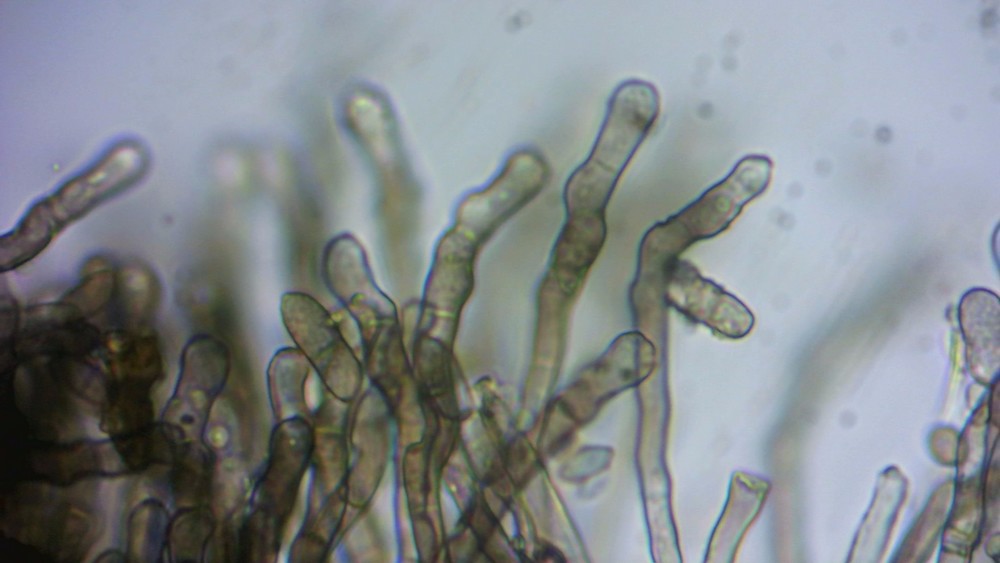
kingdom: Fungi
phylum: Ascomycota
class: Dothideomycetes
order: Pleosporales
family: Torulaceae
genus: Dendryphiella
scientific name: Dendryphiella infuscans
